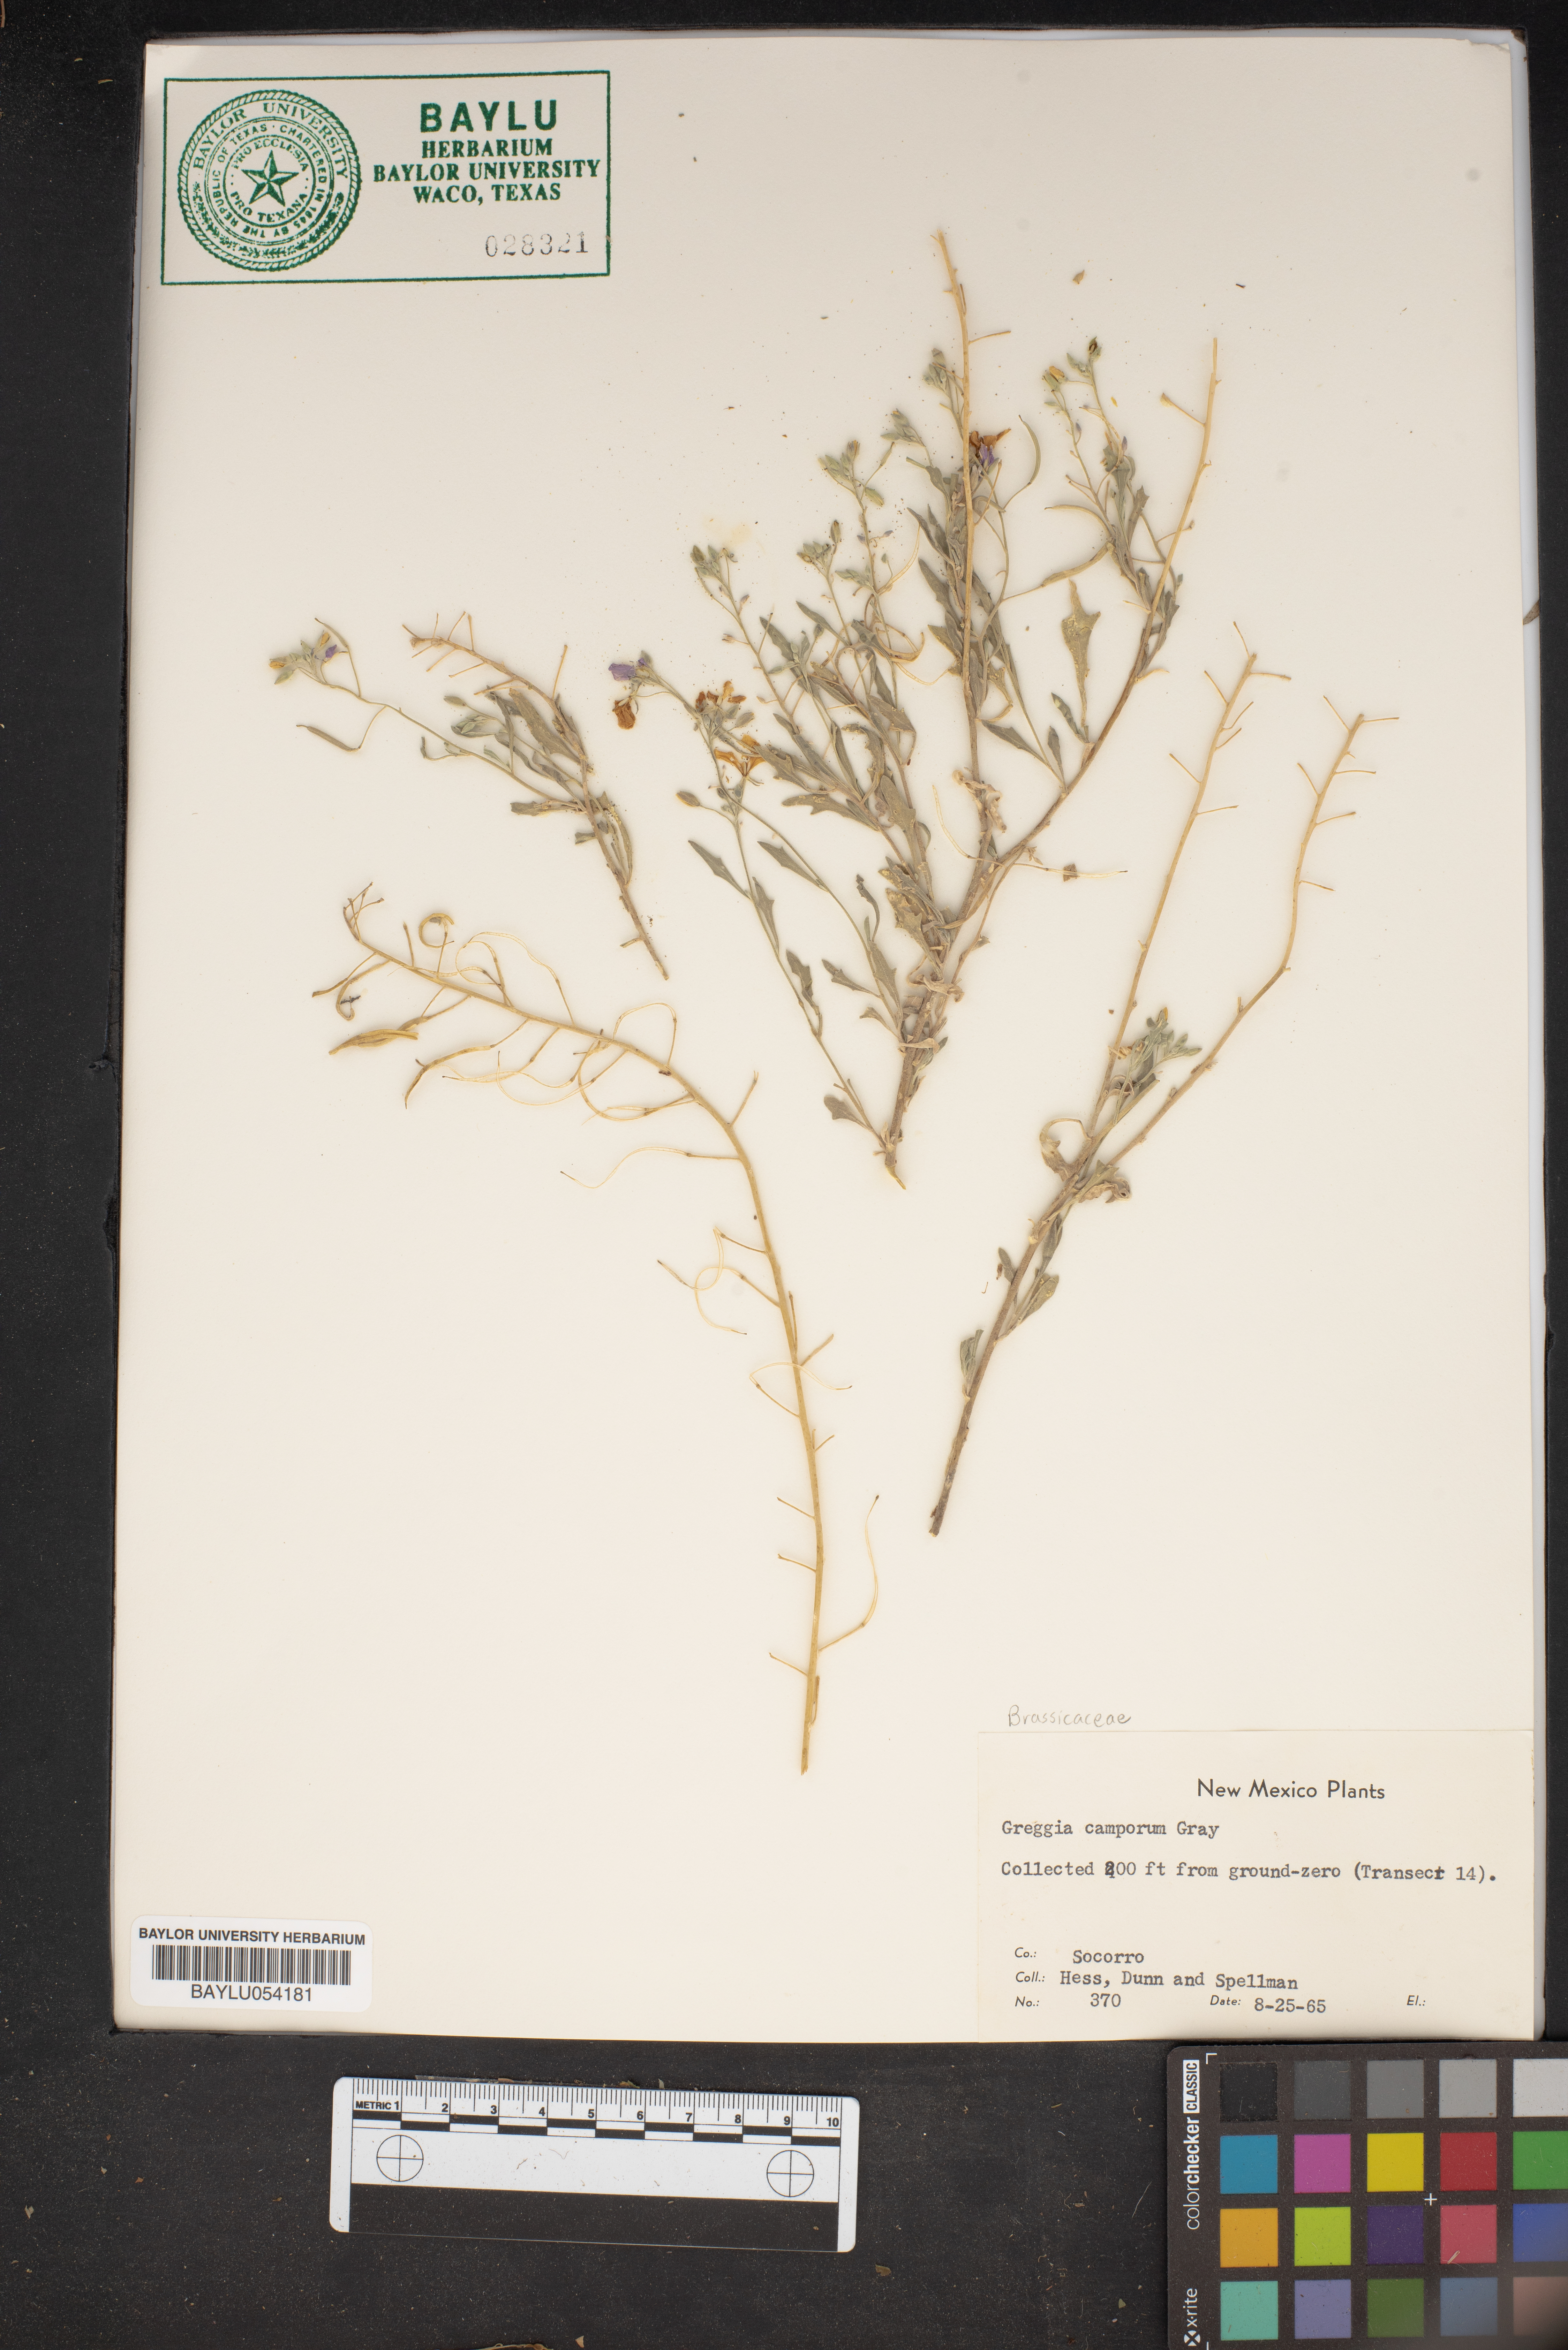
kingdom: Plantae
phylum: Tracheophyta
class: Magnoliopsida
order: Brassicales
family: Brassicaceae
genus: Nerisyrenia
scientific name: Nerisyrenia camporum
